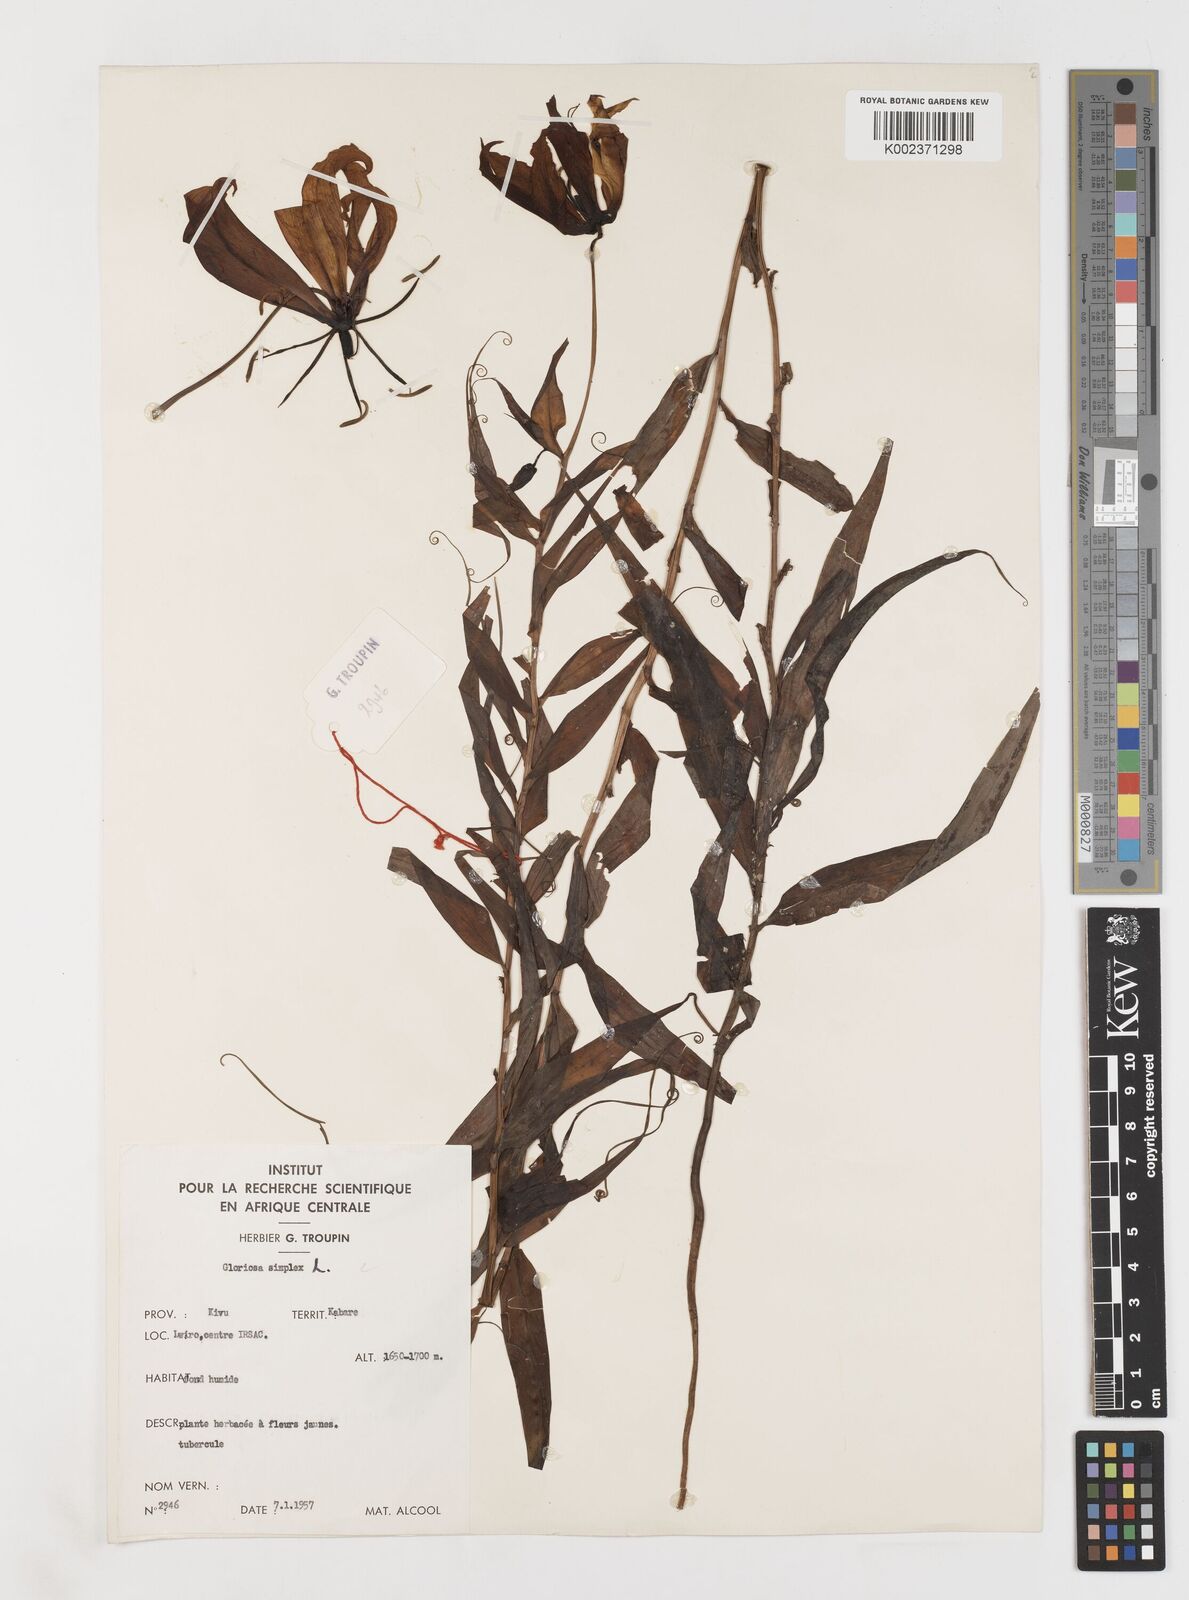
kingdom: Plantae
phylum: Tracheophyta
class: Liliopsida
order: Liliales
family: Colchicaceae
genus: Gloriosa
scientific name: Gloriosa simplex
